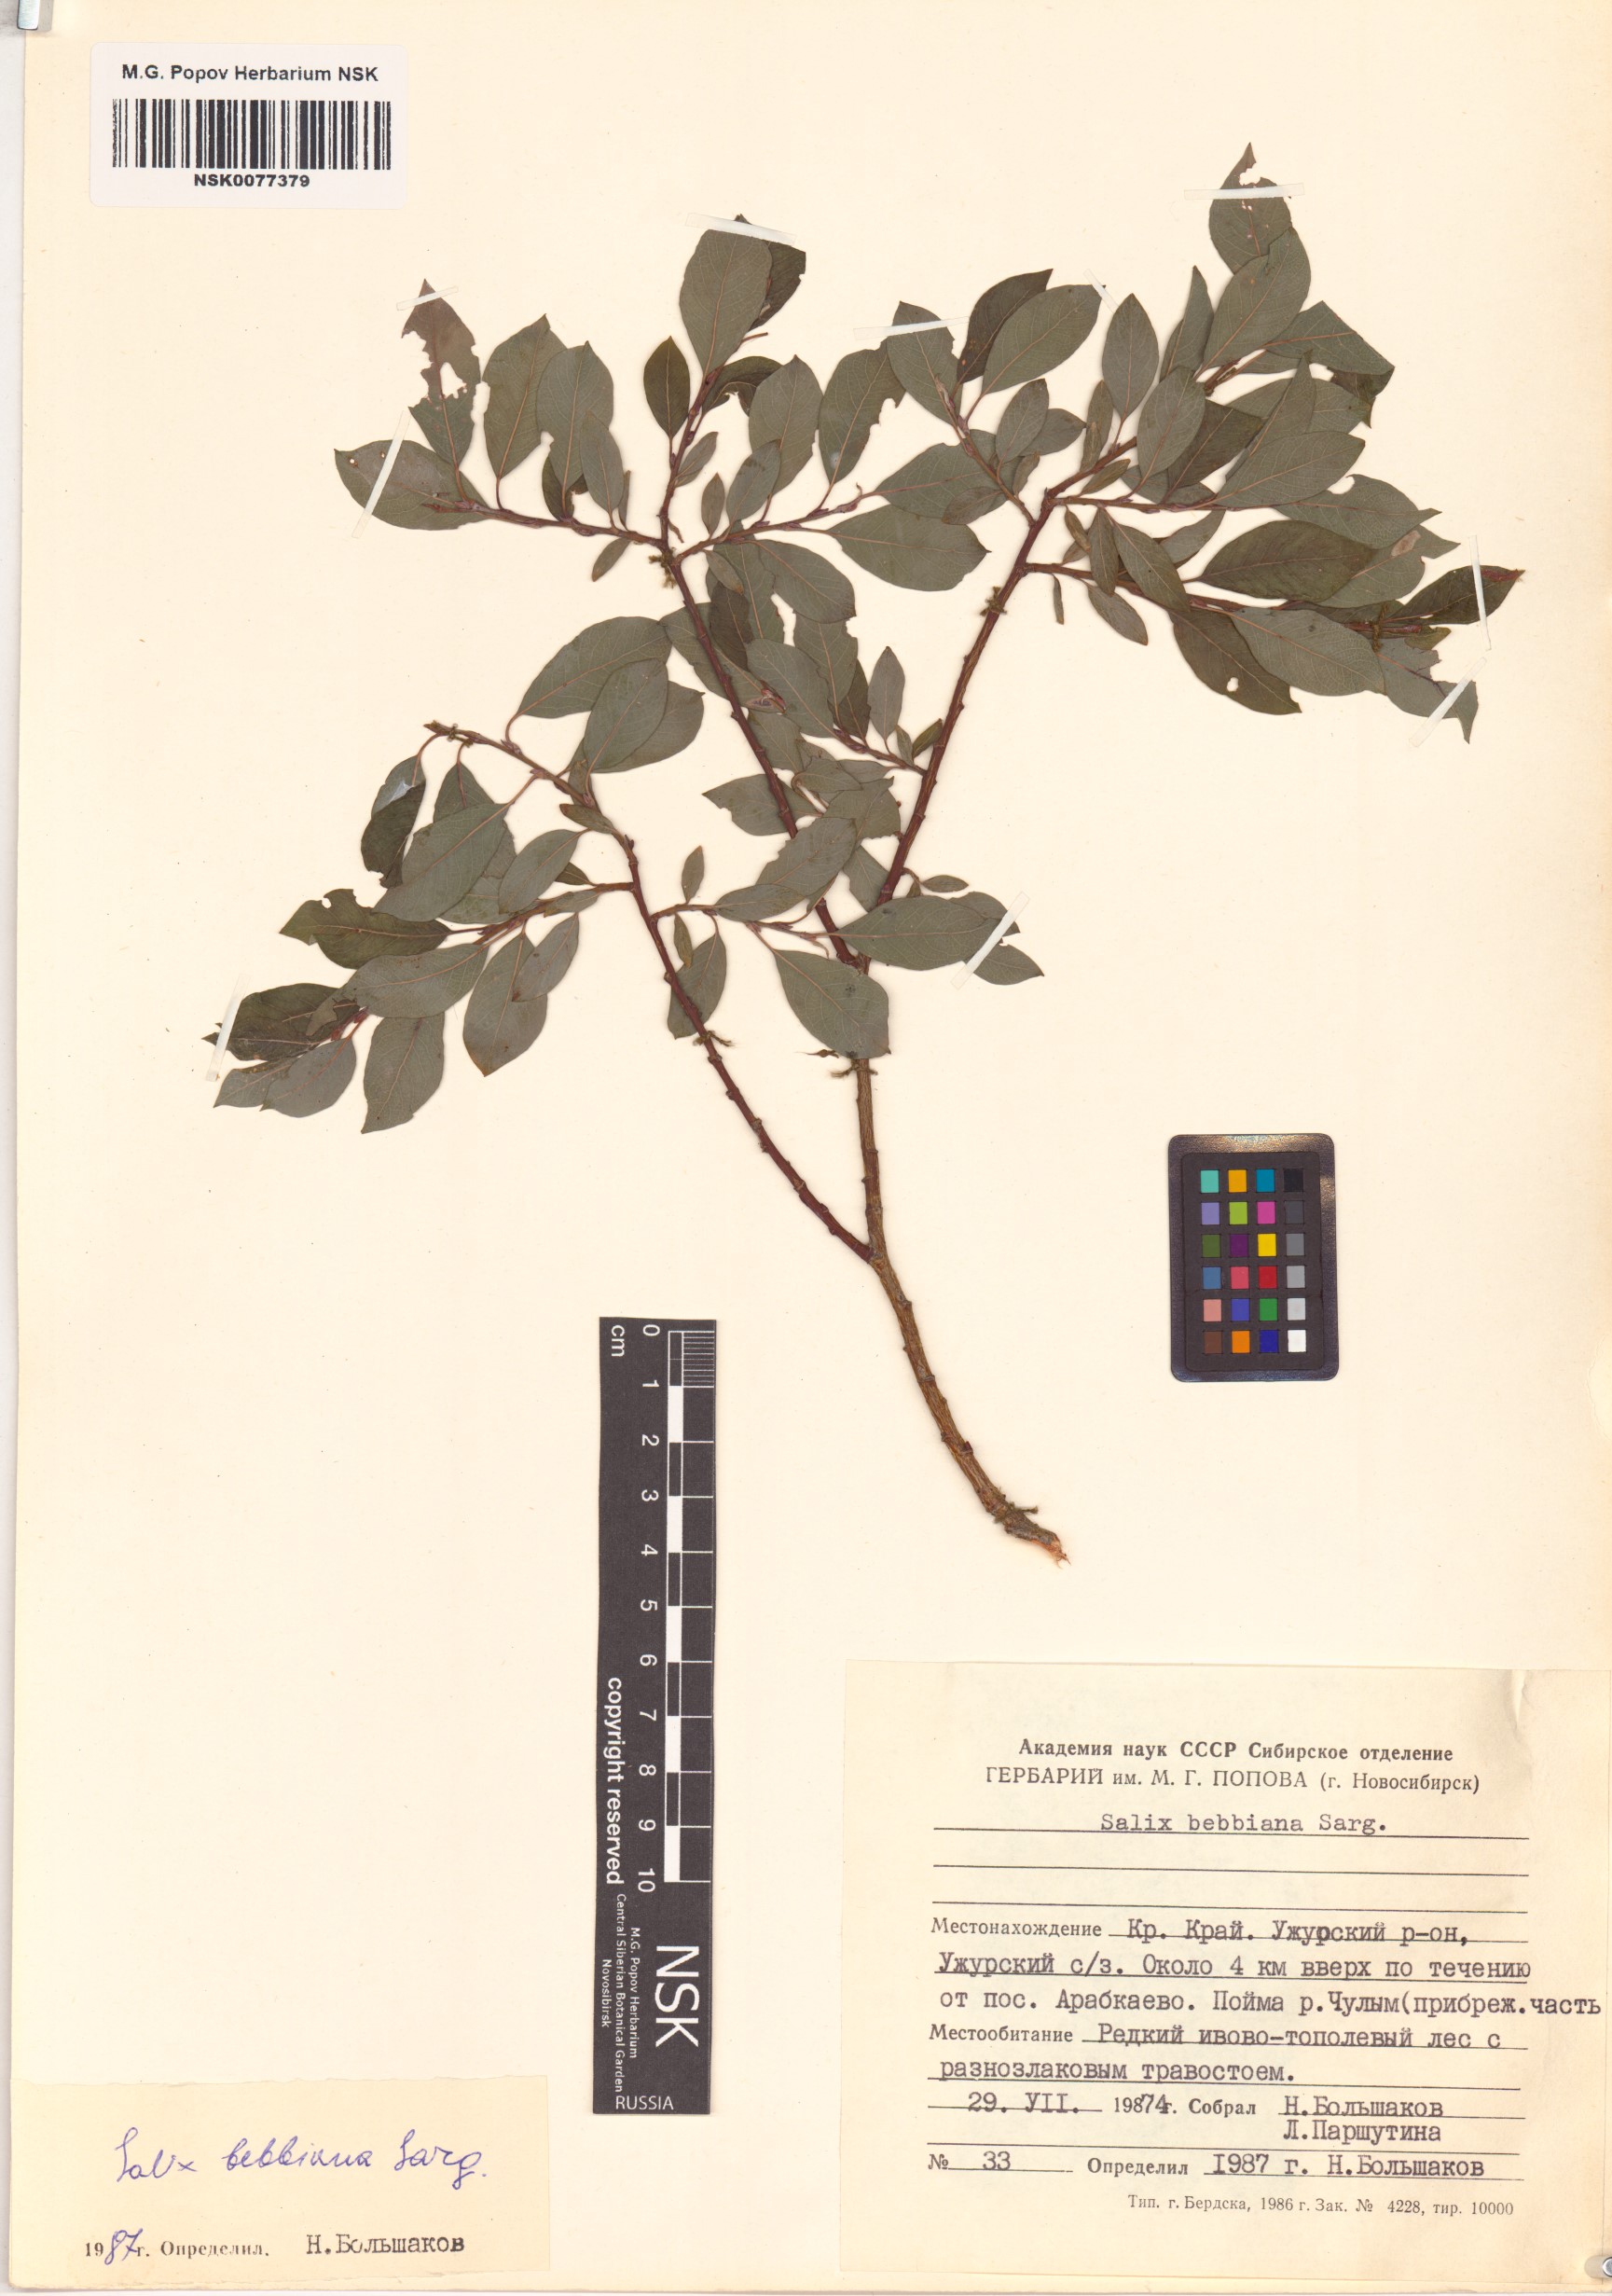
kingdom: Plantae
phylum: Tracheophyta
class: Magnoliopsida
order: Malpighiales
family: Salicaceae
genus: Salix
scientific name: Salix bebbiana
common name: Bebb's willow
